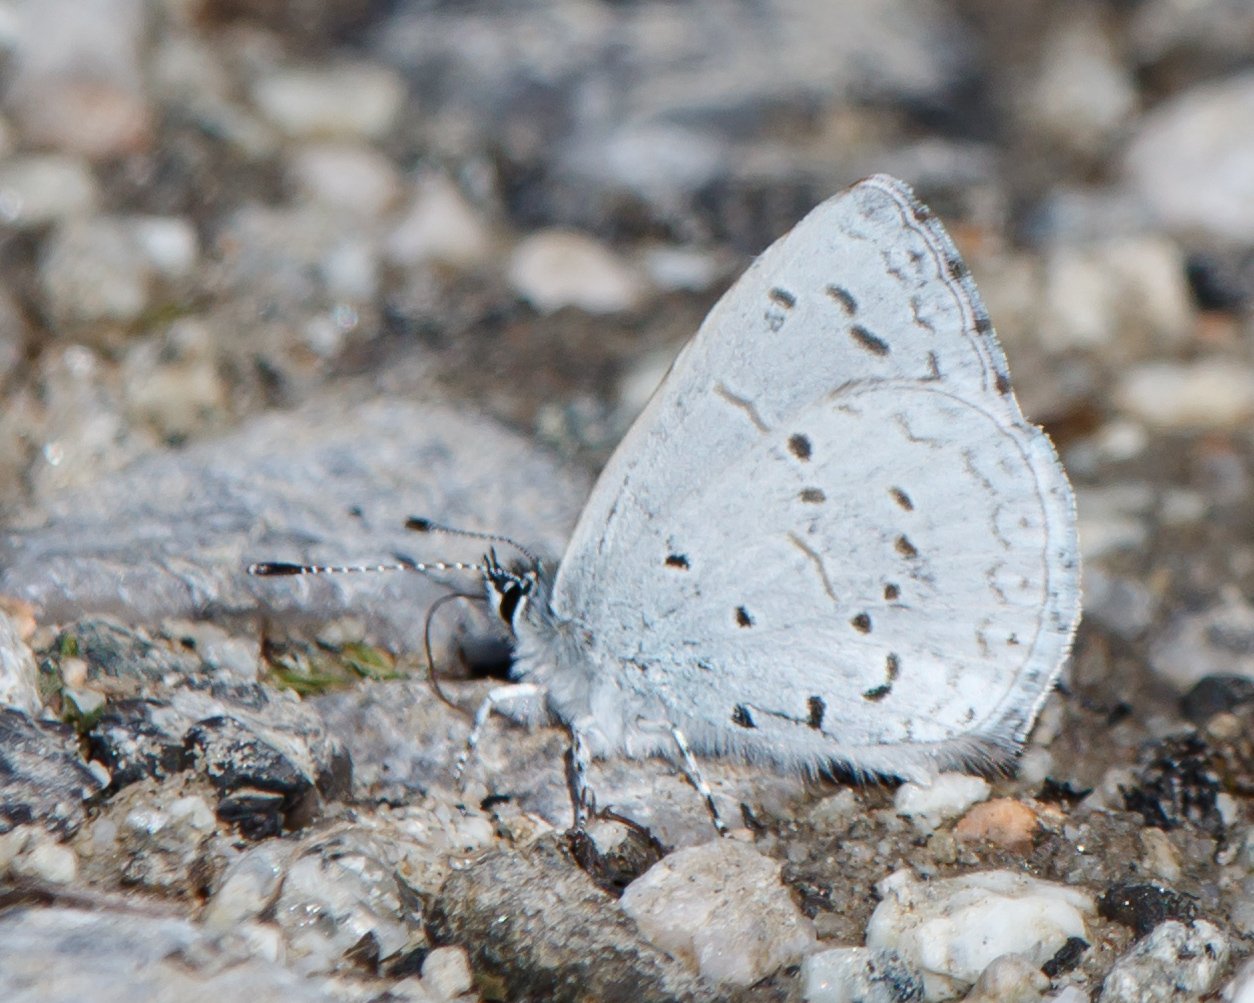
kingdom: Animalia
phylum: Arthropoda
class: Insecta
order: Lepidoptera
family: Lycaenidae
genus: Celastrina
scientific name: Celastrina ladon
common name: Echo Azure
